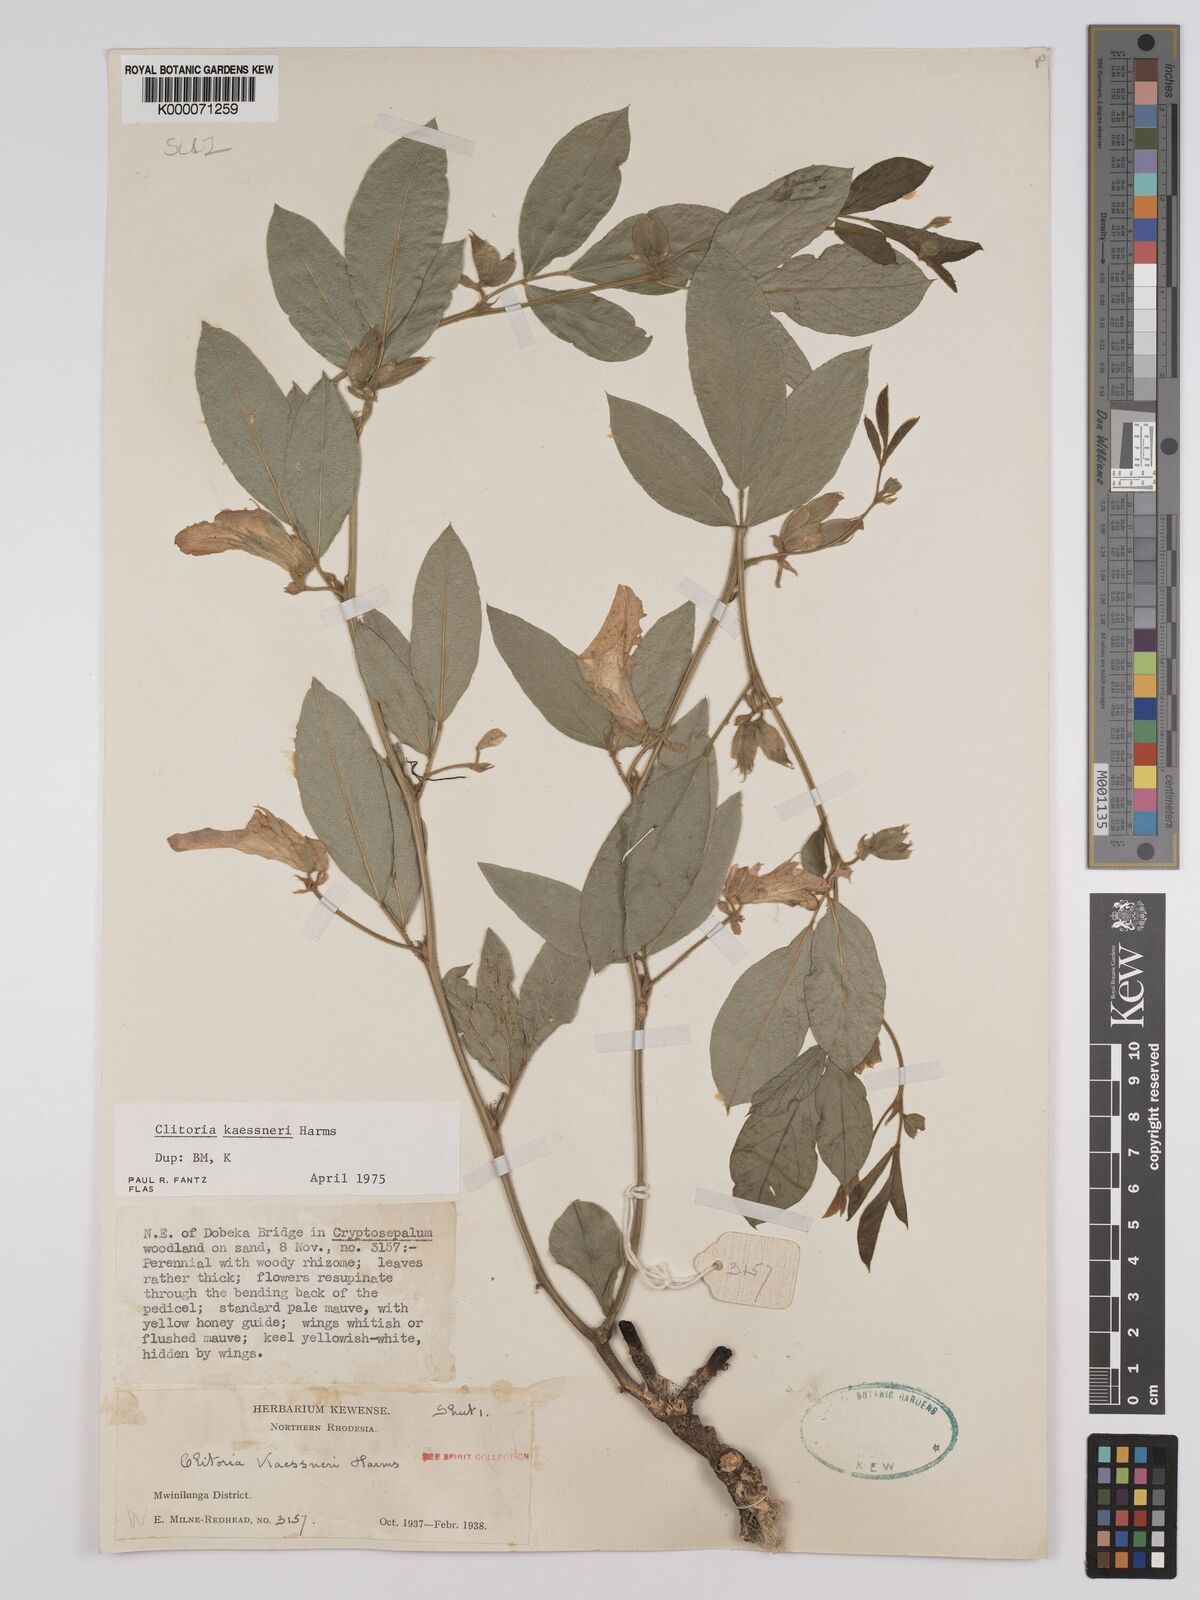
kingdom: Plantae
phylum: Tracheophyta
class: Magnoliopsida
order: Fabales
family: Fabaceae
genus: Clitoria
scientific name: Clitoria kaessneri
